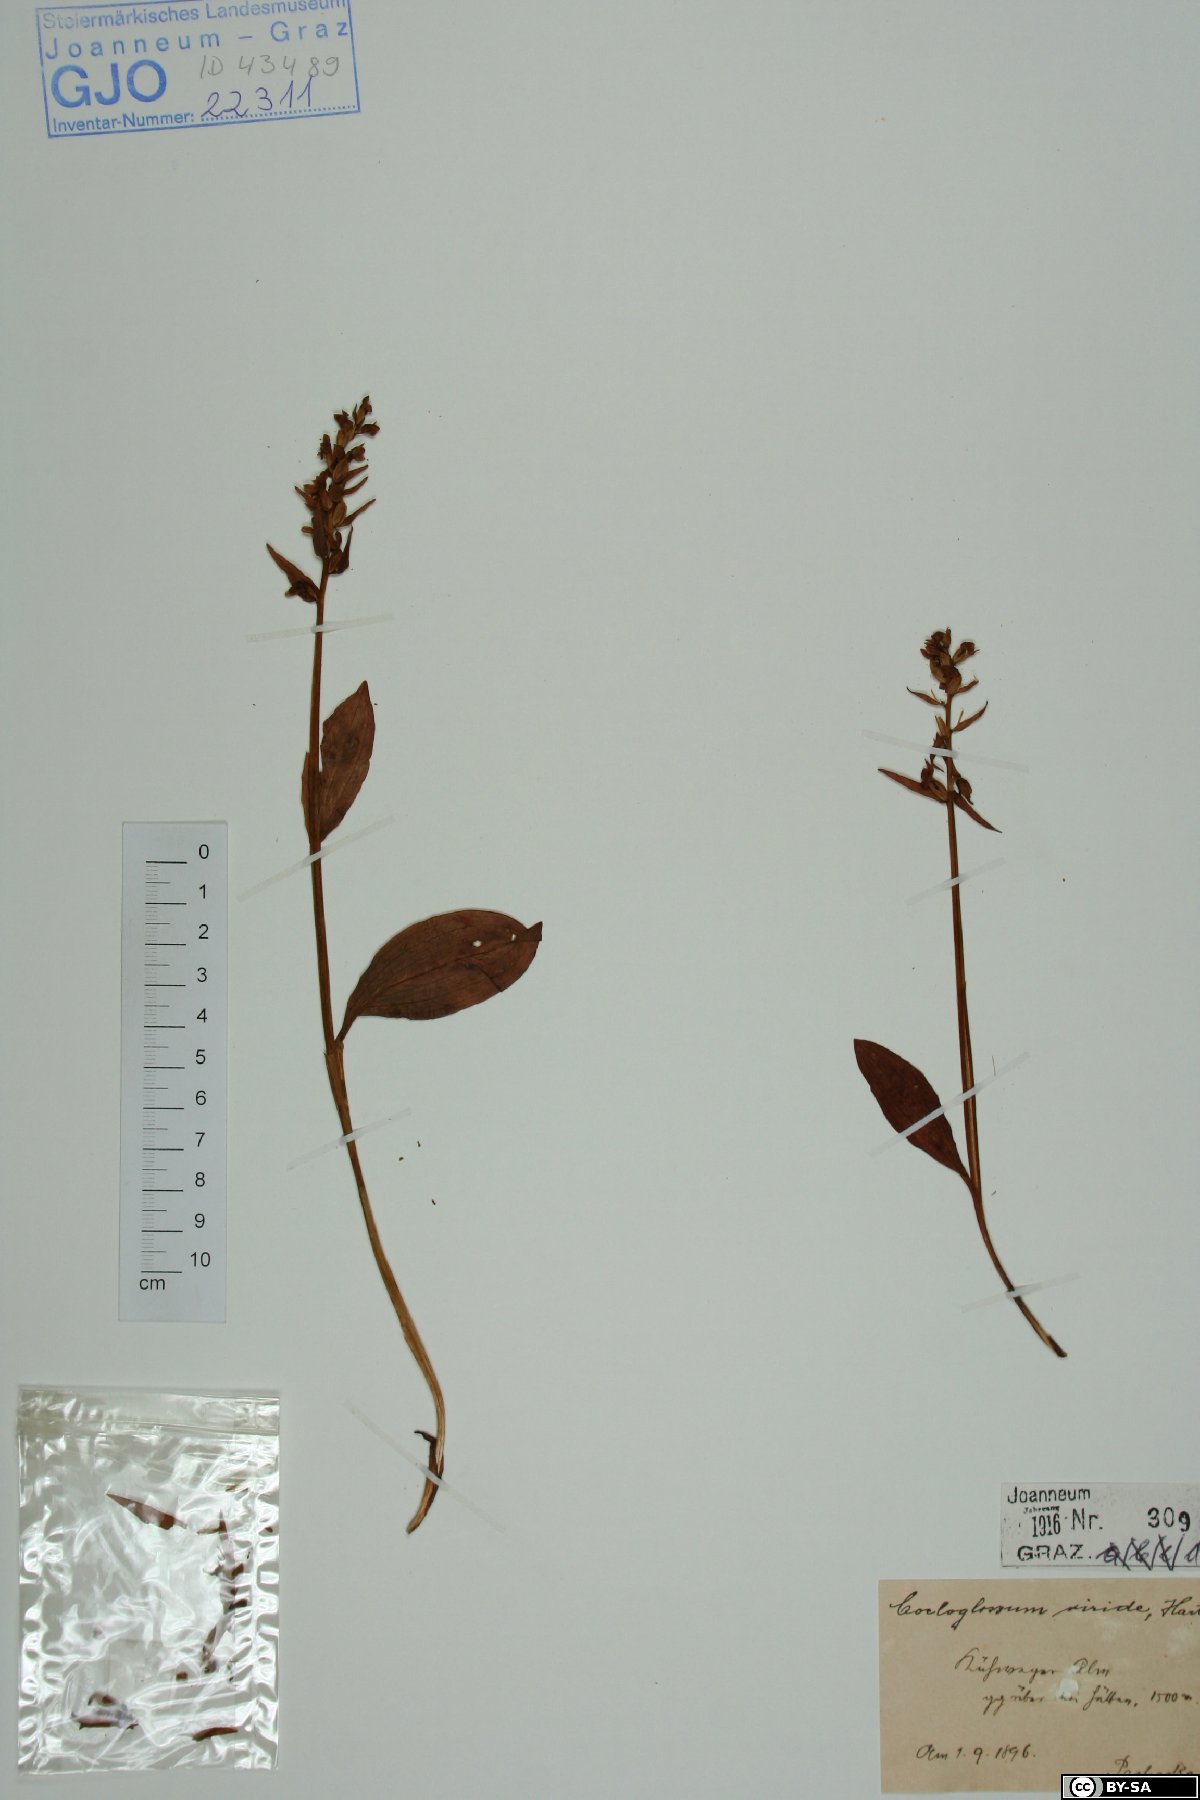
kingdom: Plantae
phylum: Tracheophyta
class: Liliopsida
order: Asparagales
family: Orchidaceae
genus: Dactylorhiza
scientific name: Dactylorhiza viridis
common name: Longbract frog orchid
